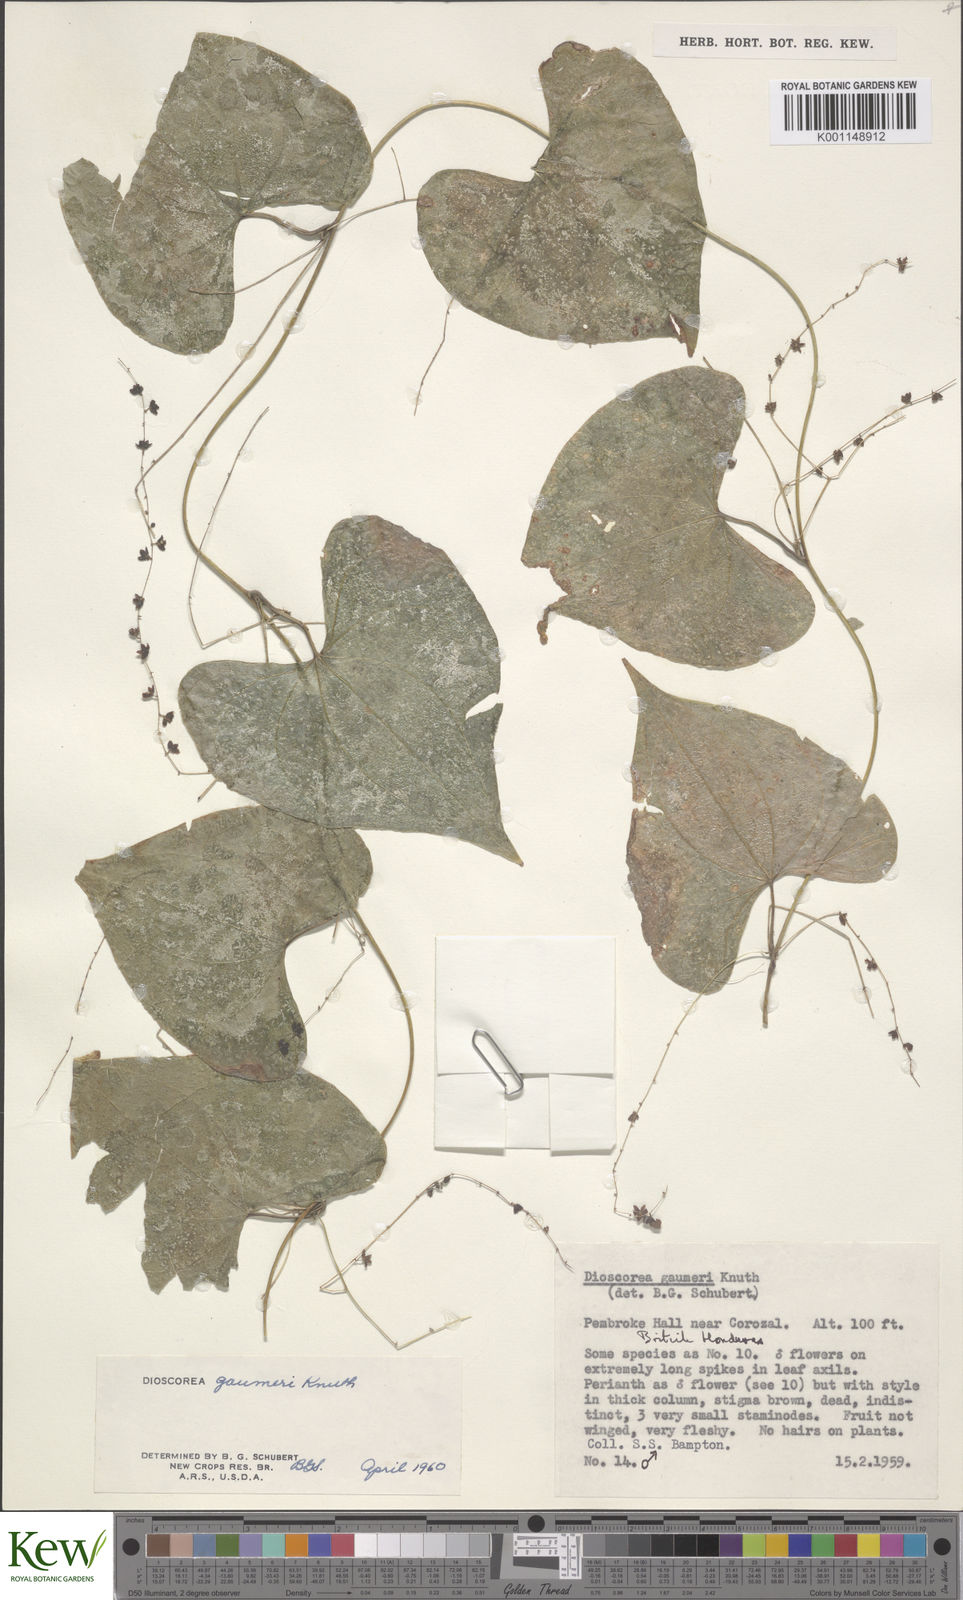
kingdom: Plantae
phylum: Tracheophyta
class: Liliopsida
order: Dioscoreales
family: Dioscoreaceae
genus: Dioscorea
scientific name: Dioscorea gaumeri
